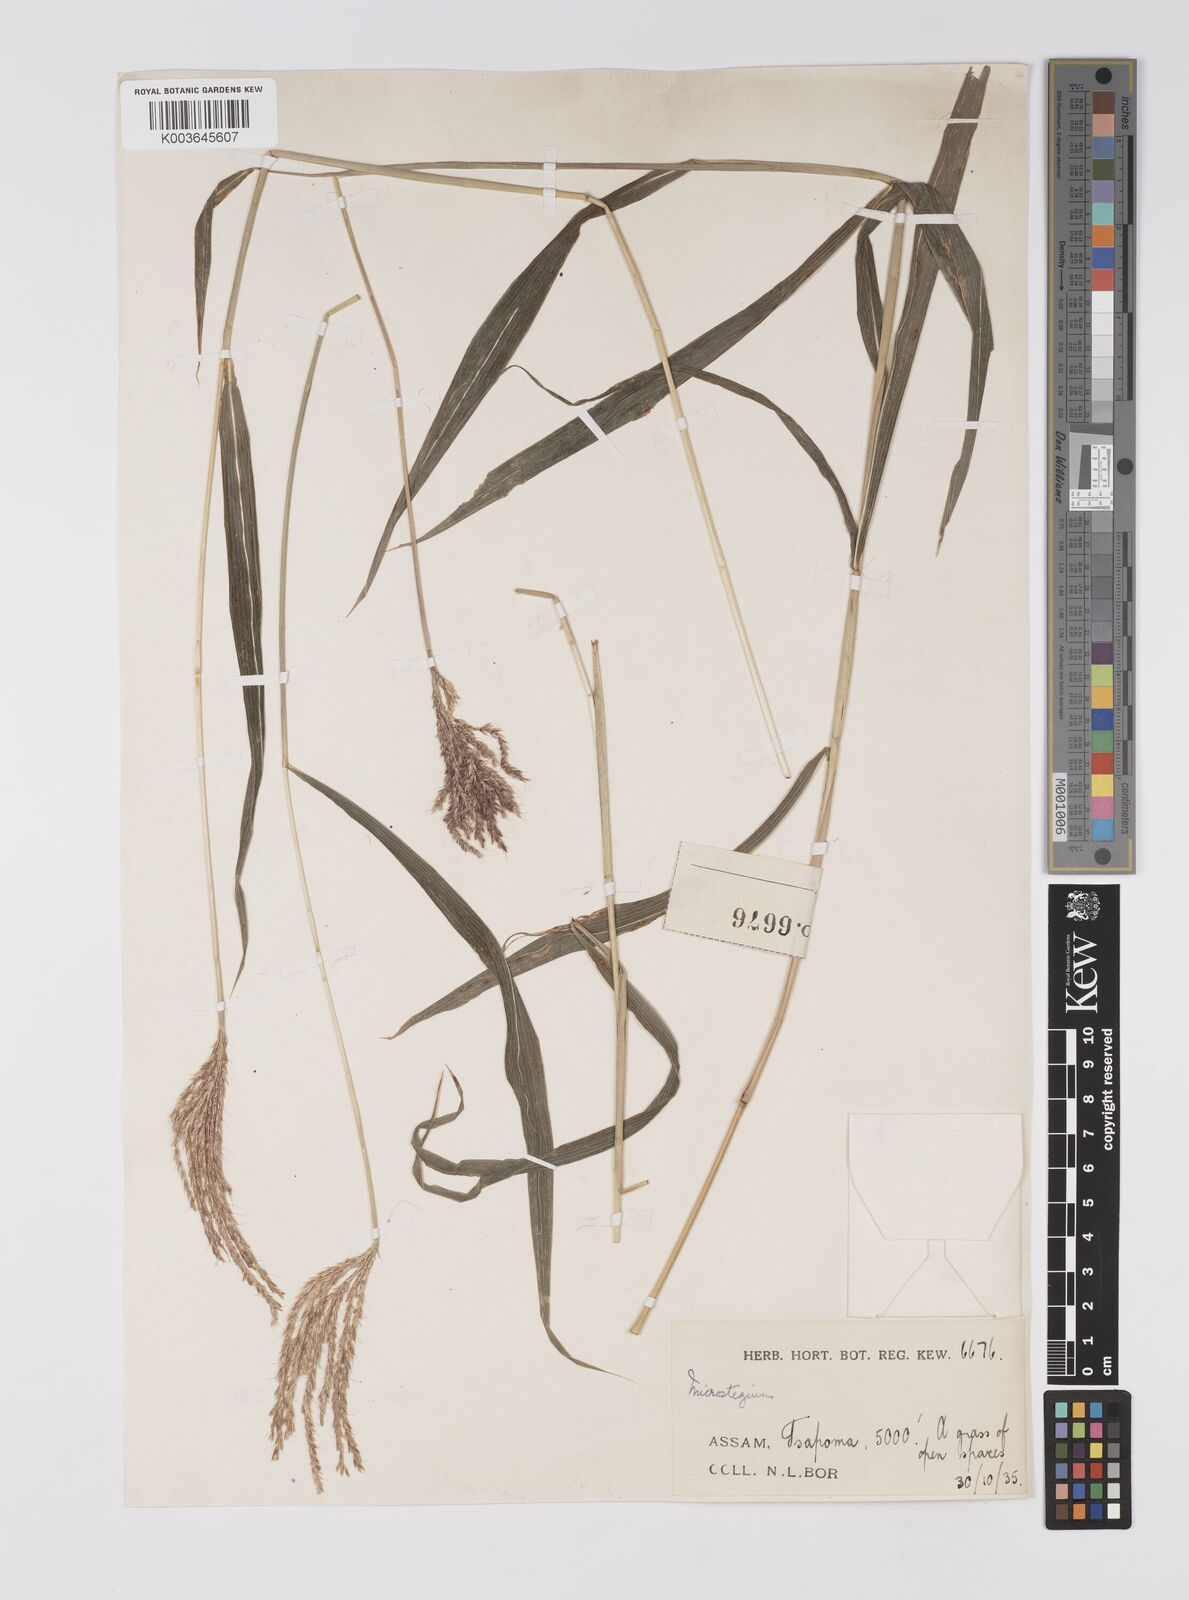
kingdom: Plantae
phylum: Tracheophyta
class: Liliopsida
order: Poales
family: Poaceae
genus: Microstegium
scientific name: Microstegium fasciculatum
